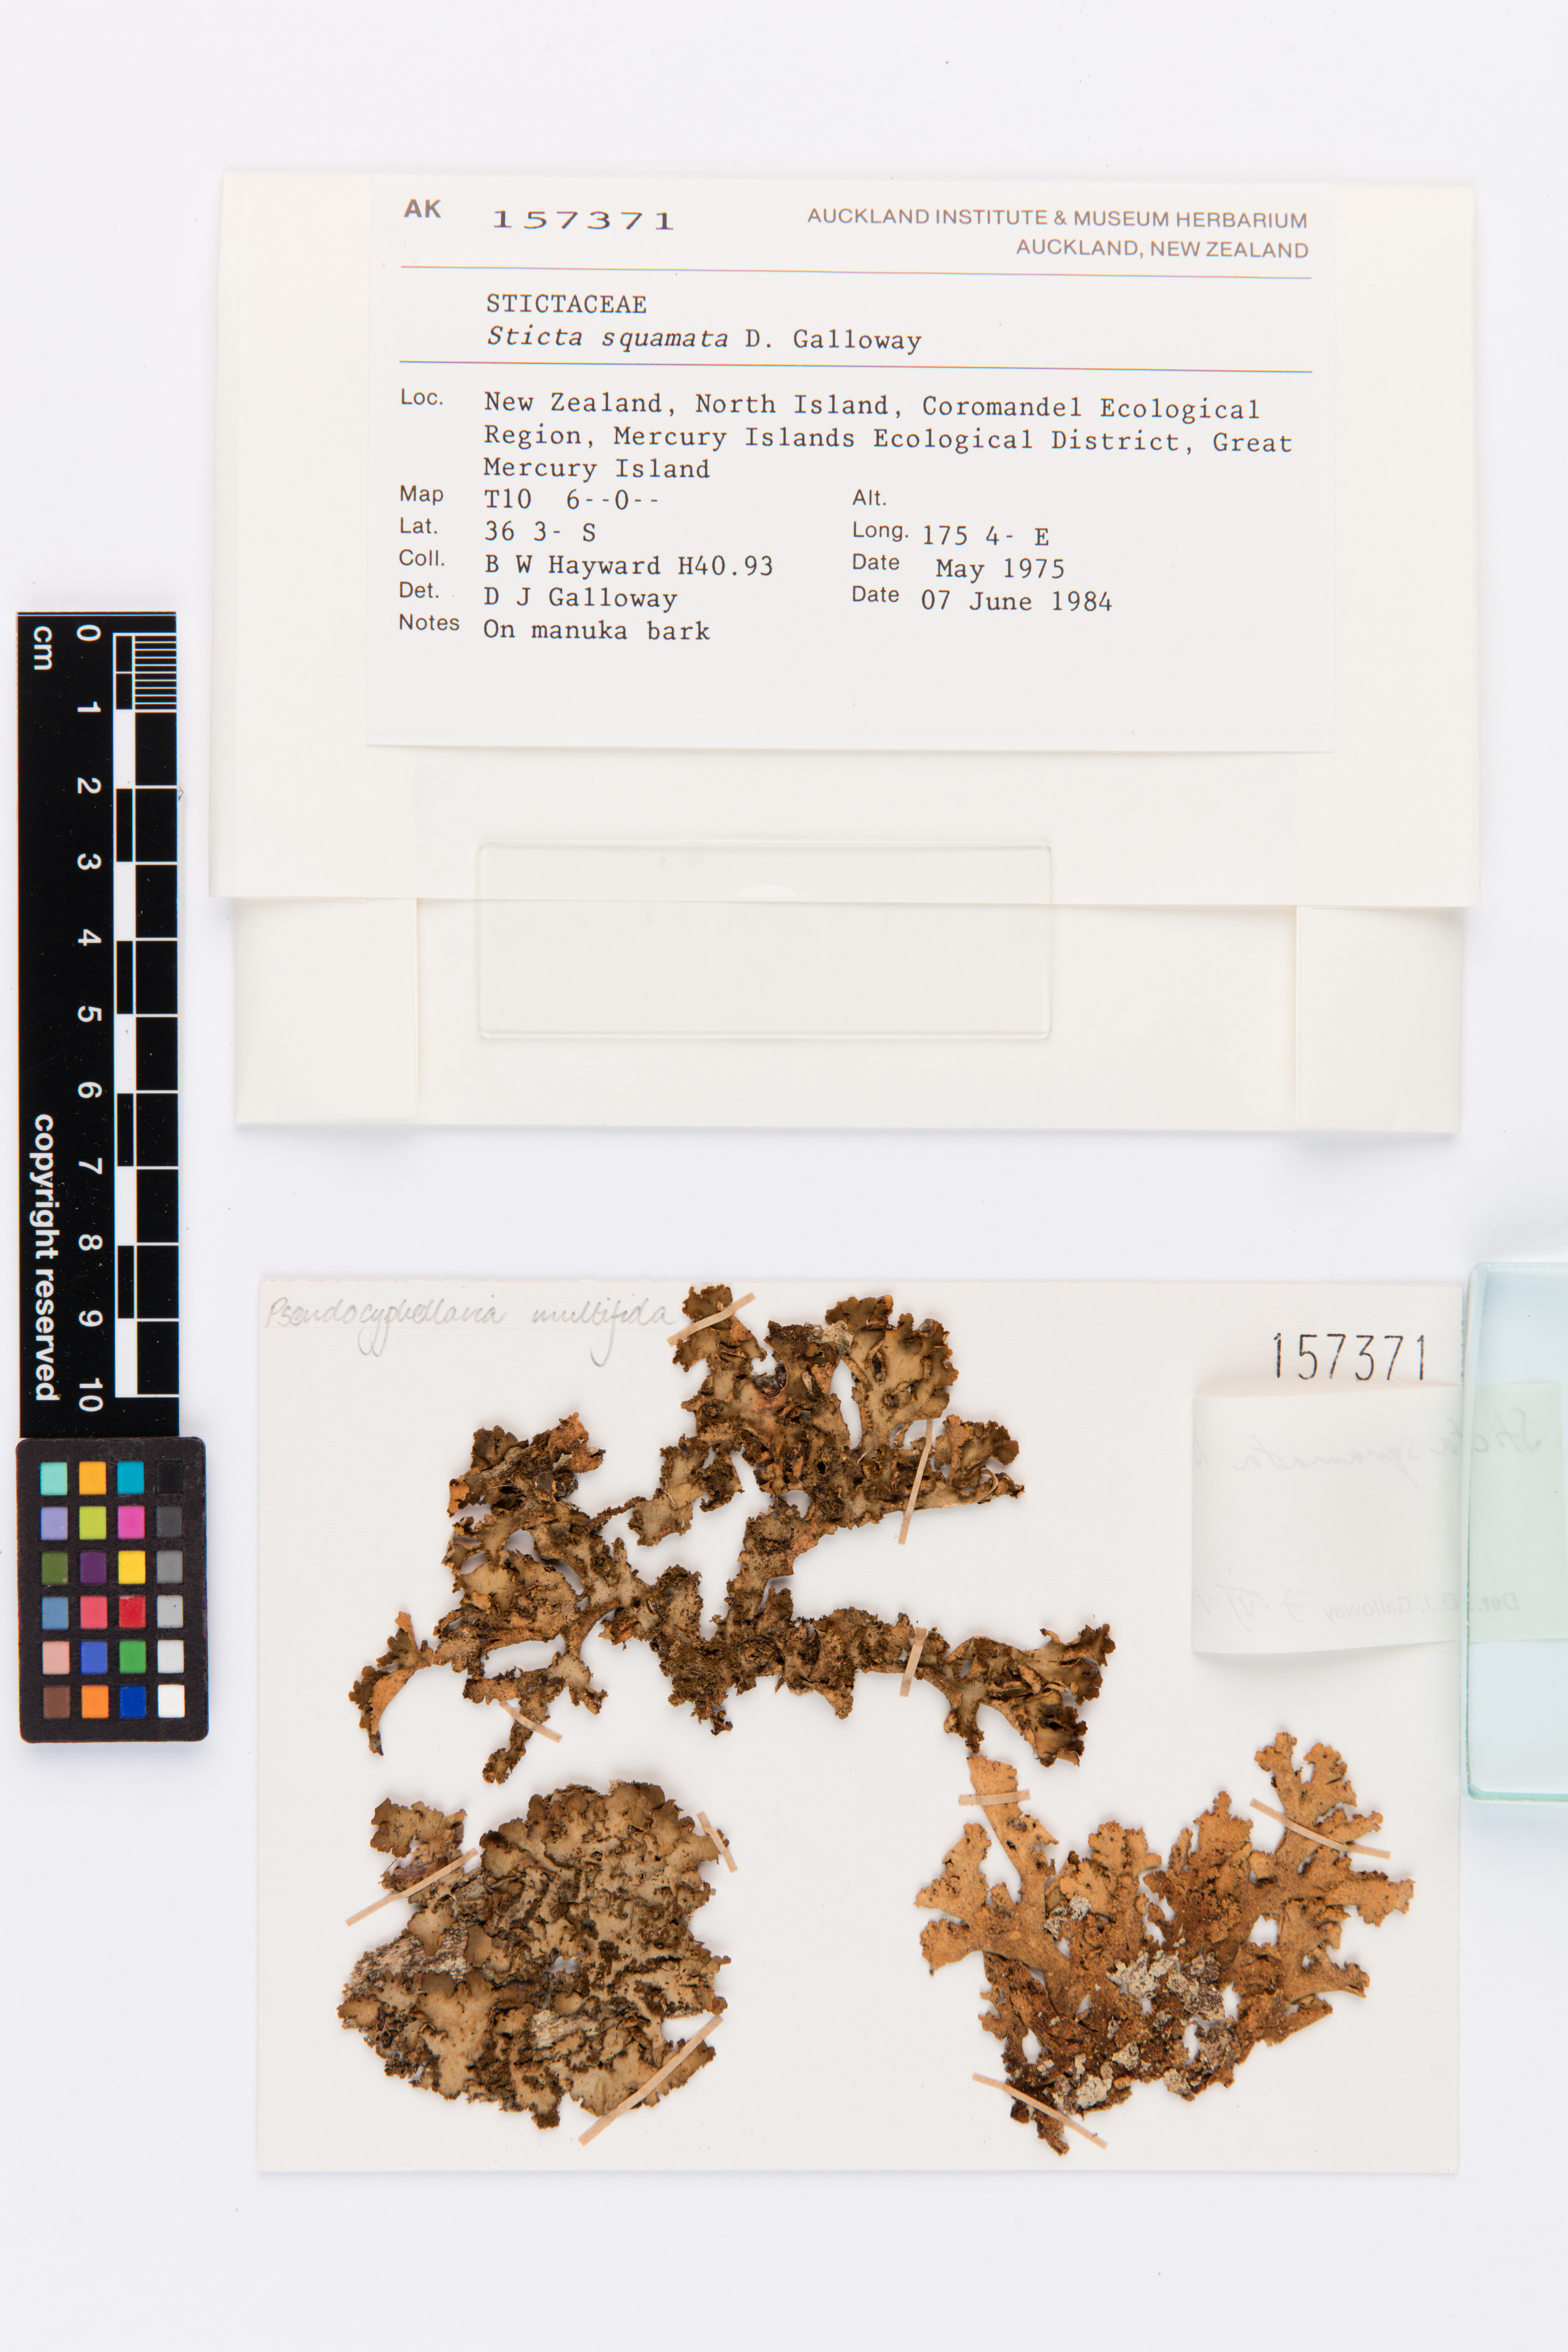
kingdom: Fungi
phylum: Ascomycota
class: Lecanoromycetes
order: Peltigerales
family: Lobariaceae
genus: Sticta
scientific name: Sticta squamata
